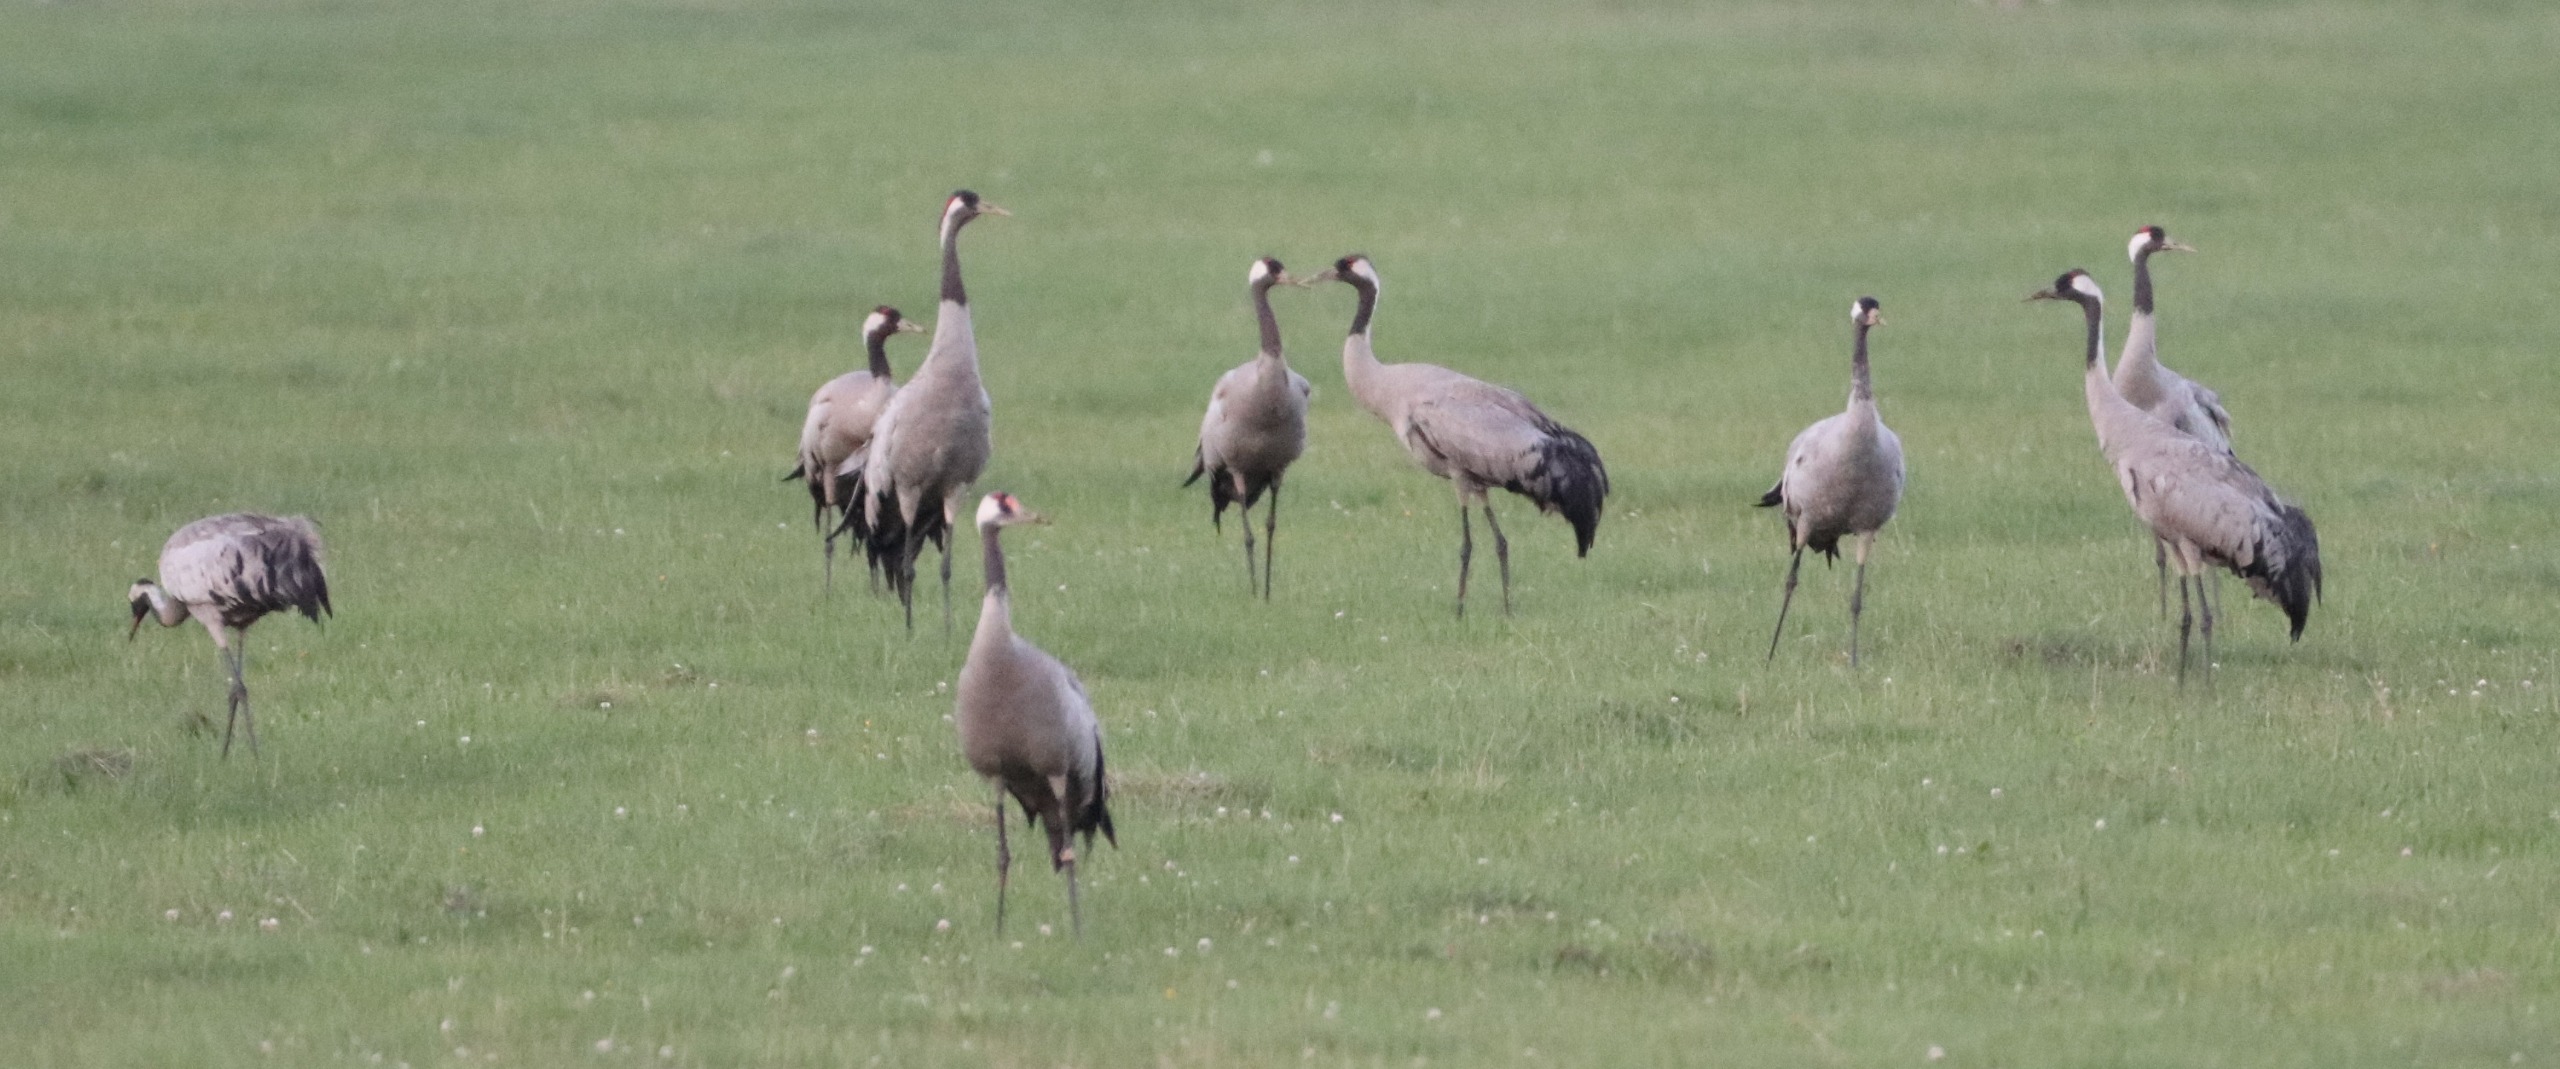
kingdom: Animalia
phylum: Chordata
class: Aves
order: Gruiformes
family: Gruidae
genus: Grus
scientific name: Grus grus
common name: Trane
